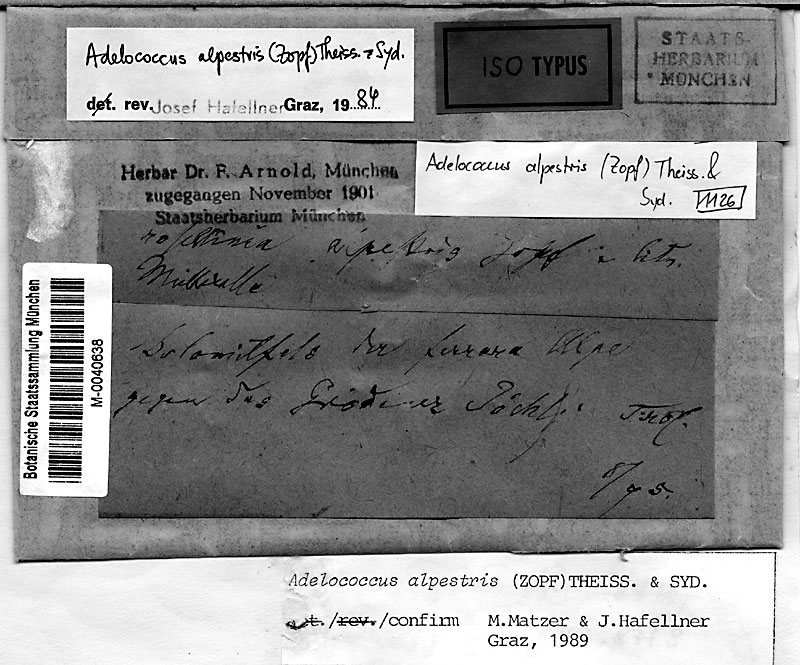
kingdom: Fungi
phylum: Ascomycota
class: Eurotiomycetes
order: Verrucariales
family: Adelococcaceae
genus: Adelococcus
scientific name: Adelococcus alpestris
